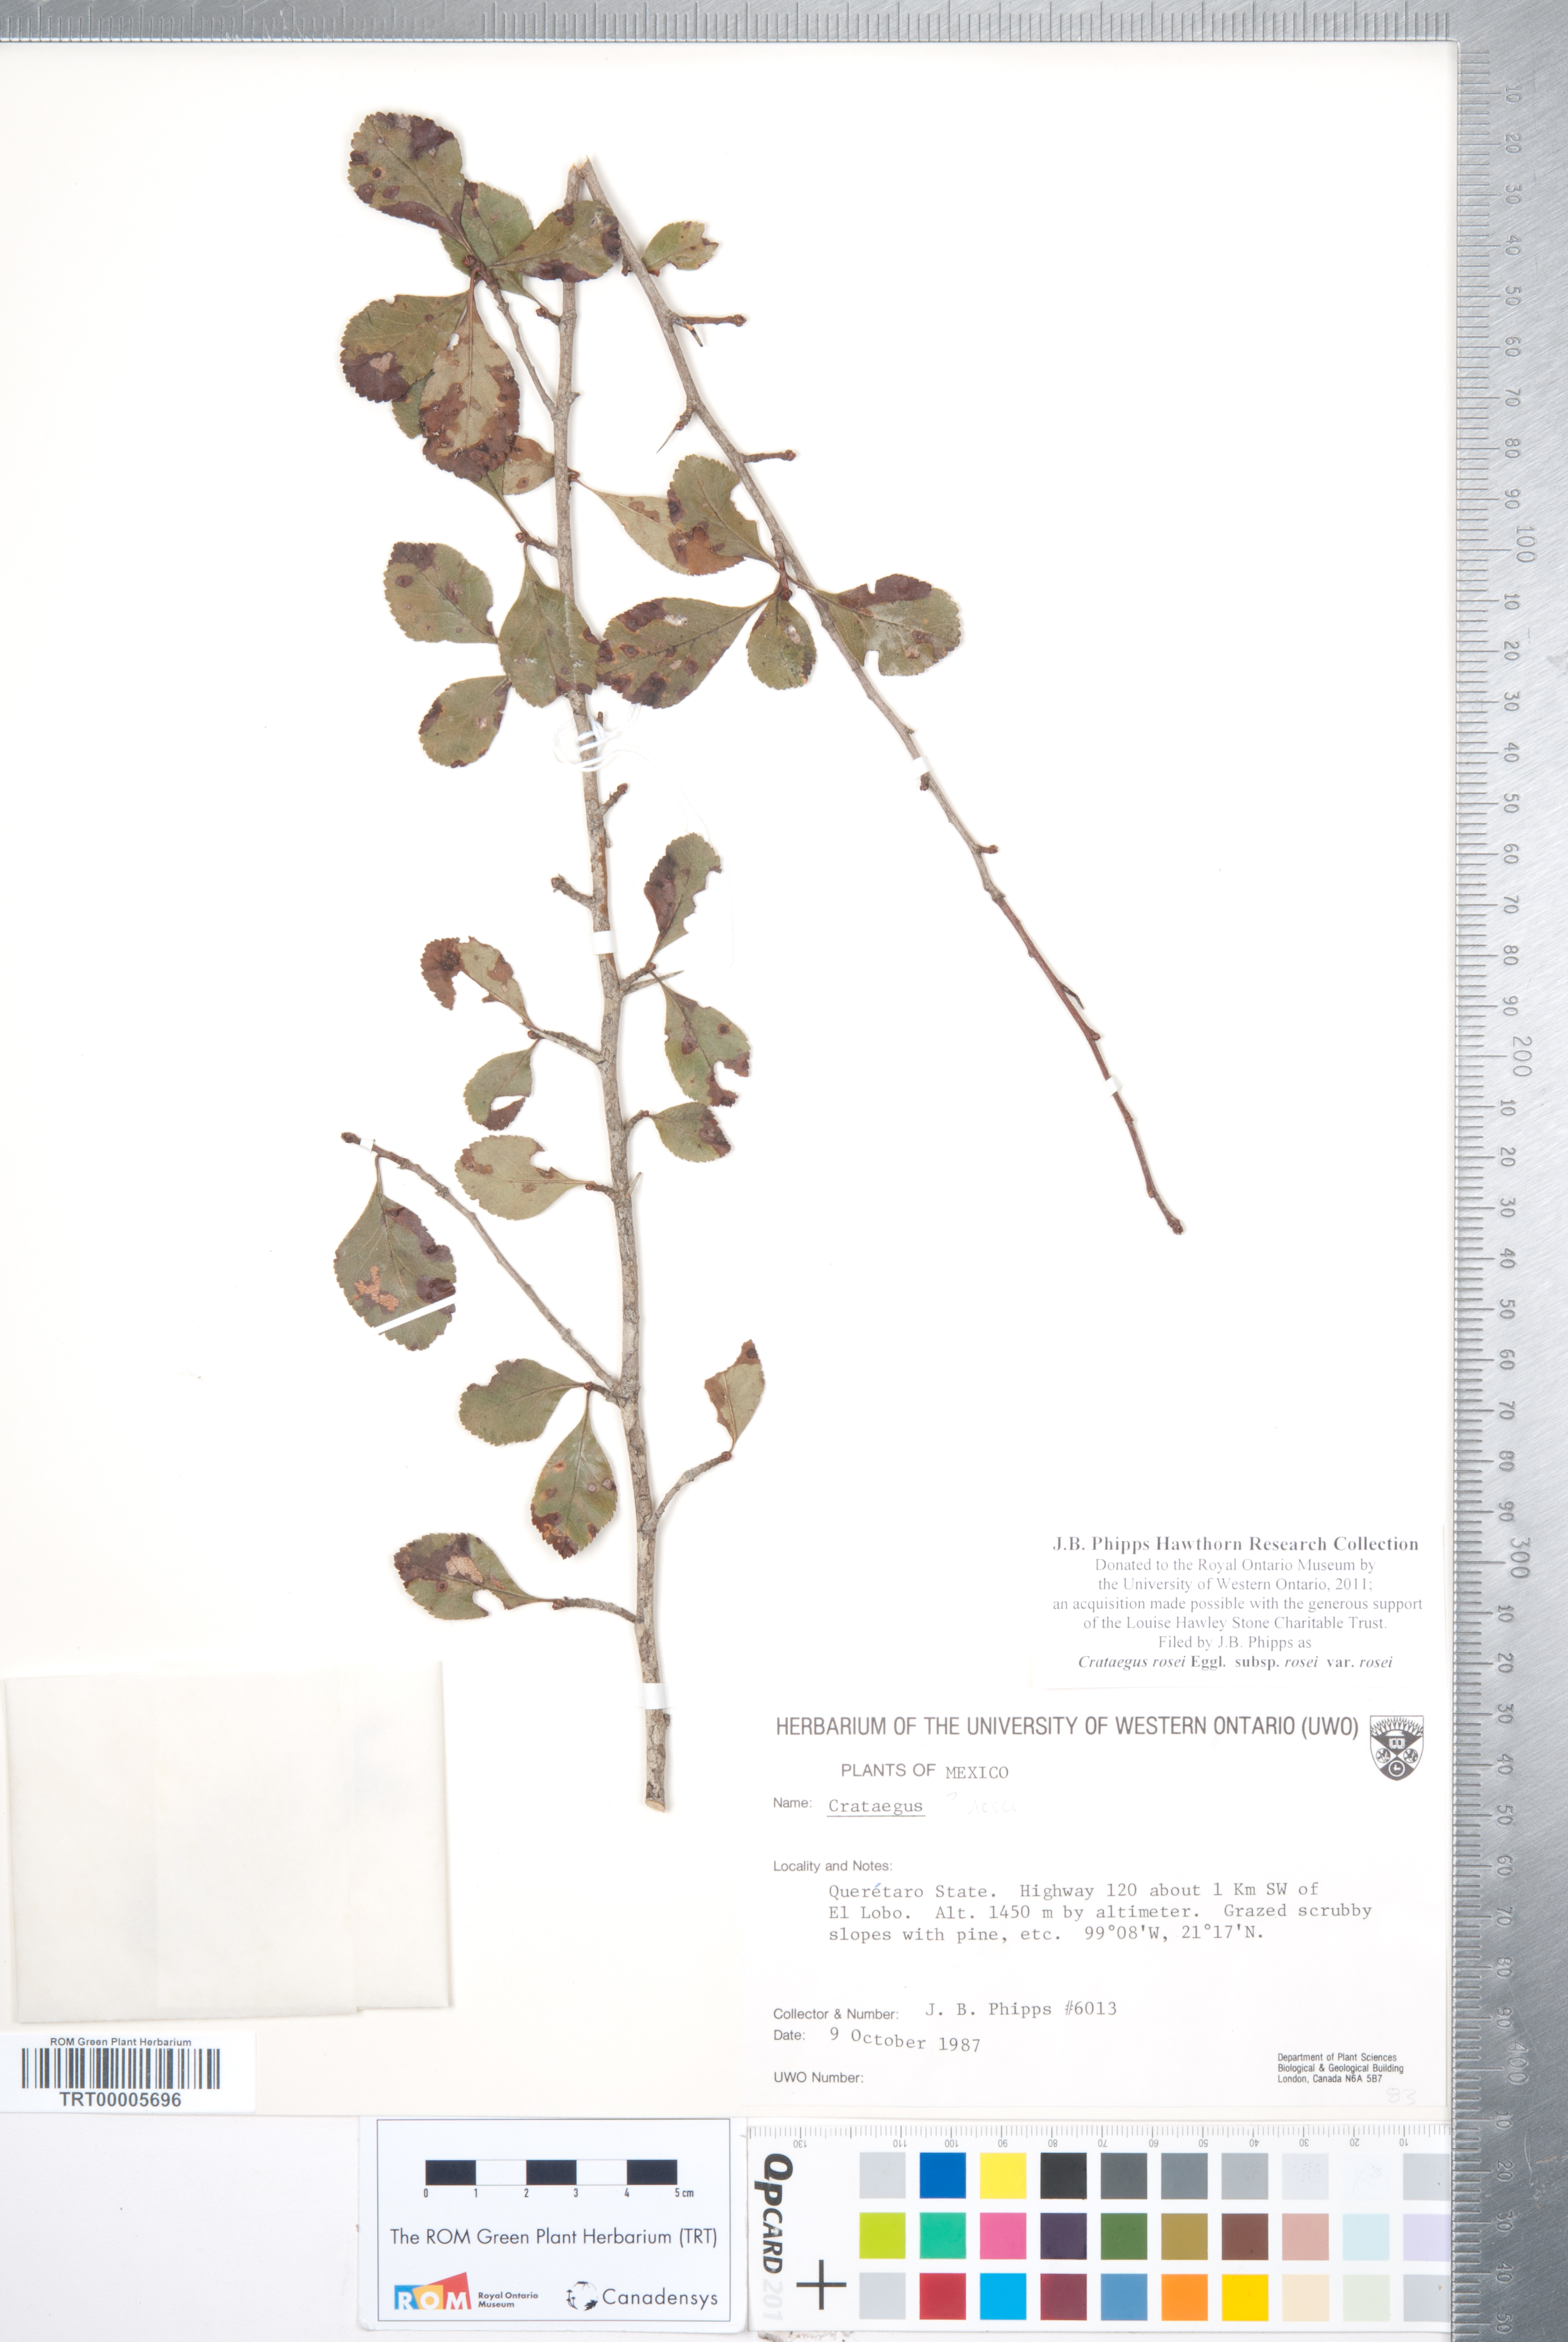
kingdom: Plantae
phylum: Tracheophyta
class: Magnoliopsida
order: Rosales
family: Rosaceae
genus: Crataegus
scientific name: Crataegus rosei
